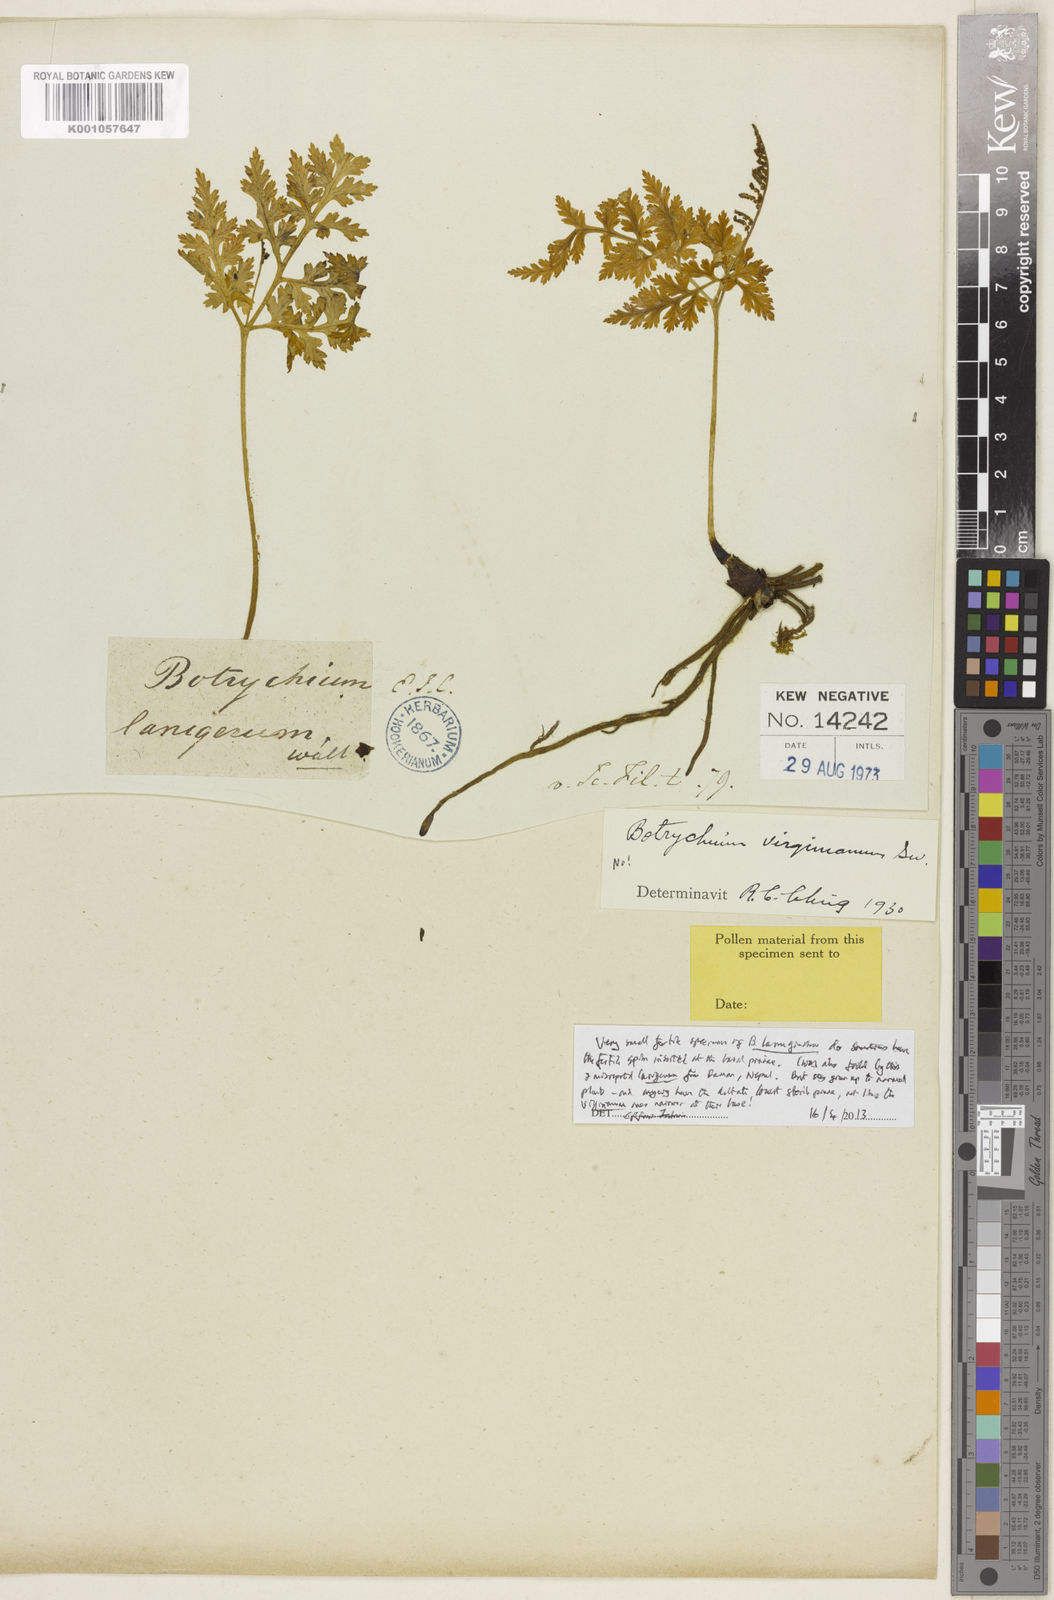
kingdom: Plantae
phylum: Tracheophyta
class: Polypodiopsida
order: Ophioglossales
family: Ophioglossaceae
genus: Japanobotrychum
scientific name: Japanobotrychum lanuginosum
